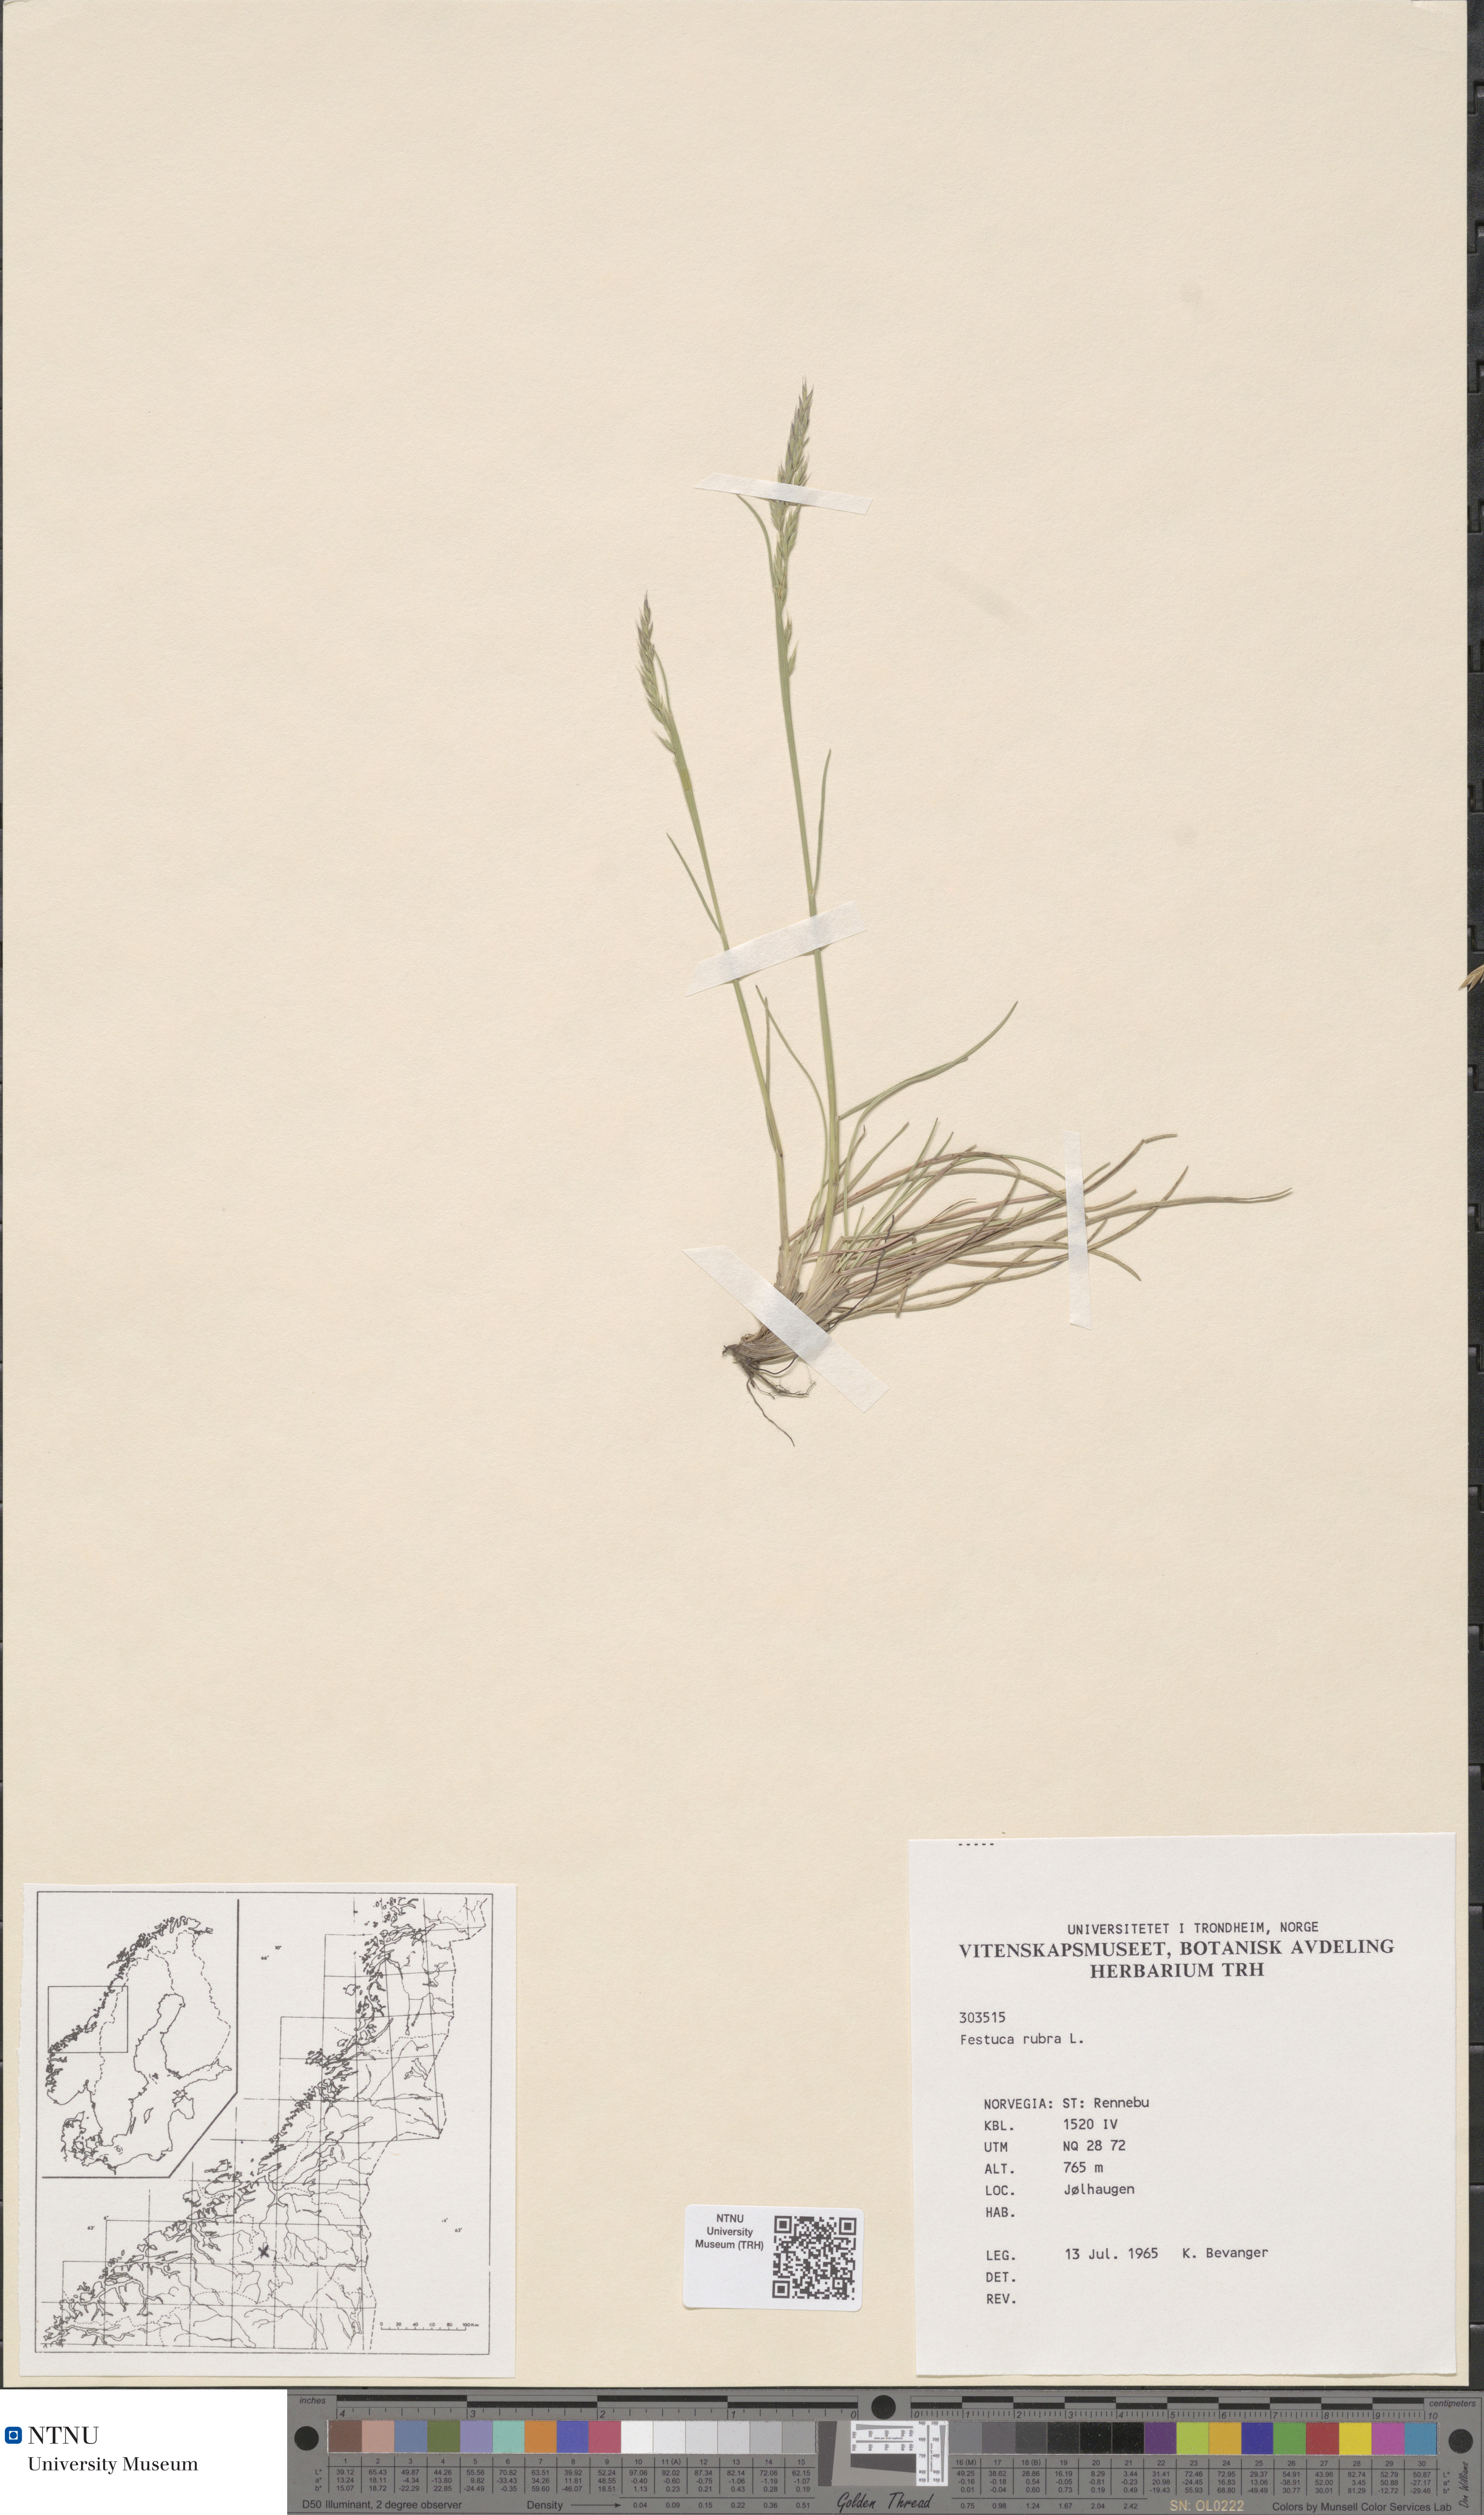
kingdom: Plantae
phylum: Tracheophyta
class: Liliopsida
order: Poales
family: Poaceae
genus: Festuca
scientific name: Festuca rubra
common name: Red fescue
